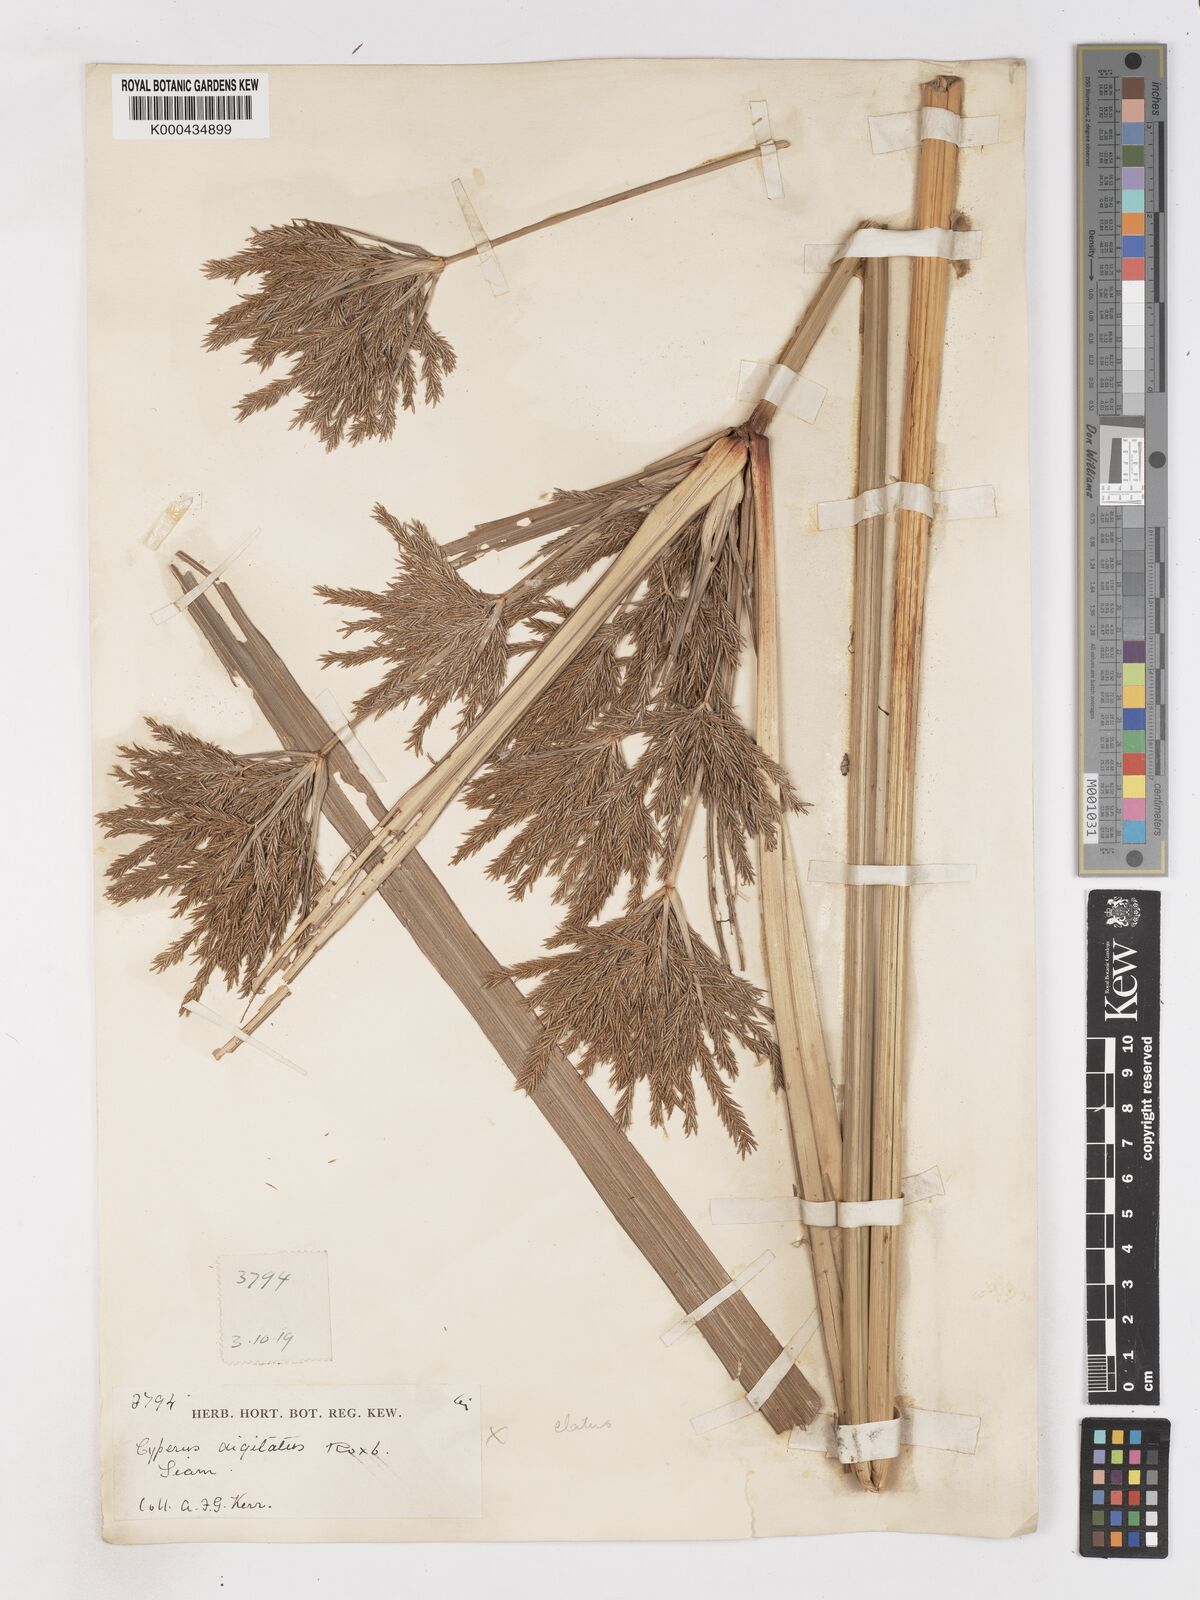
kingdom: Plantae
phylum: Tracheophyta
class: Liliopsida
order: Poales
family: Cyperaceae
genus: Cyperus
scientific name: Cyperus elatus
